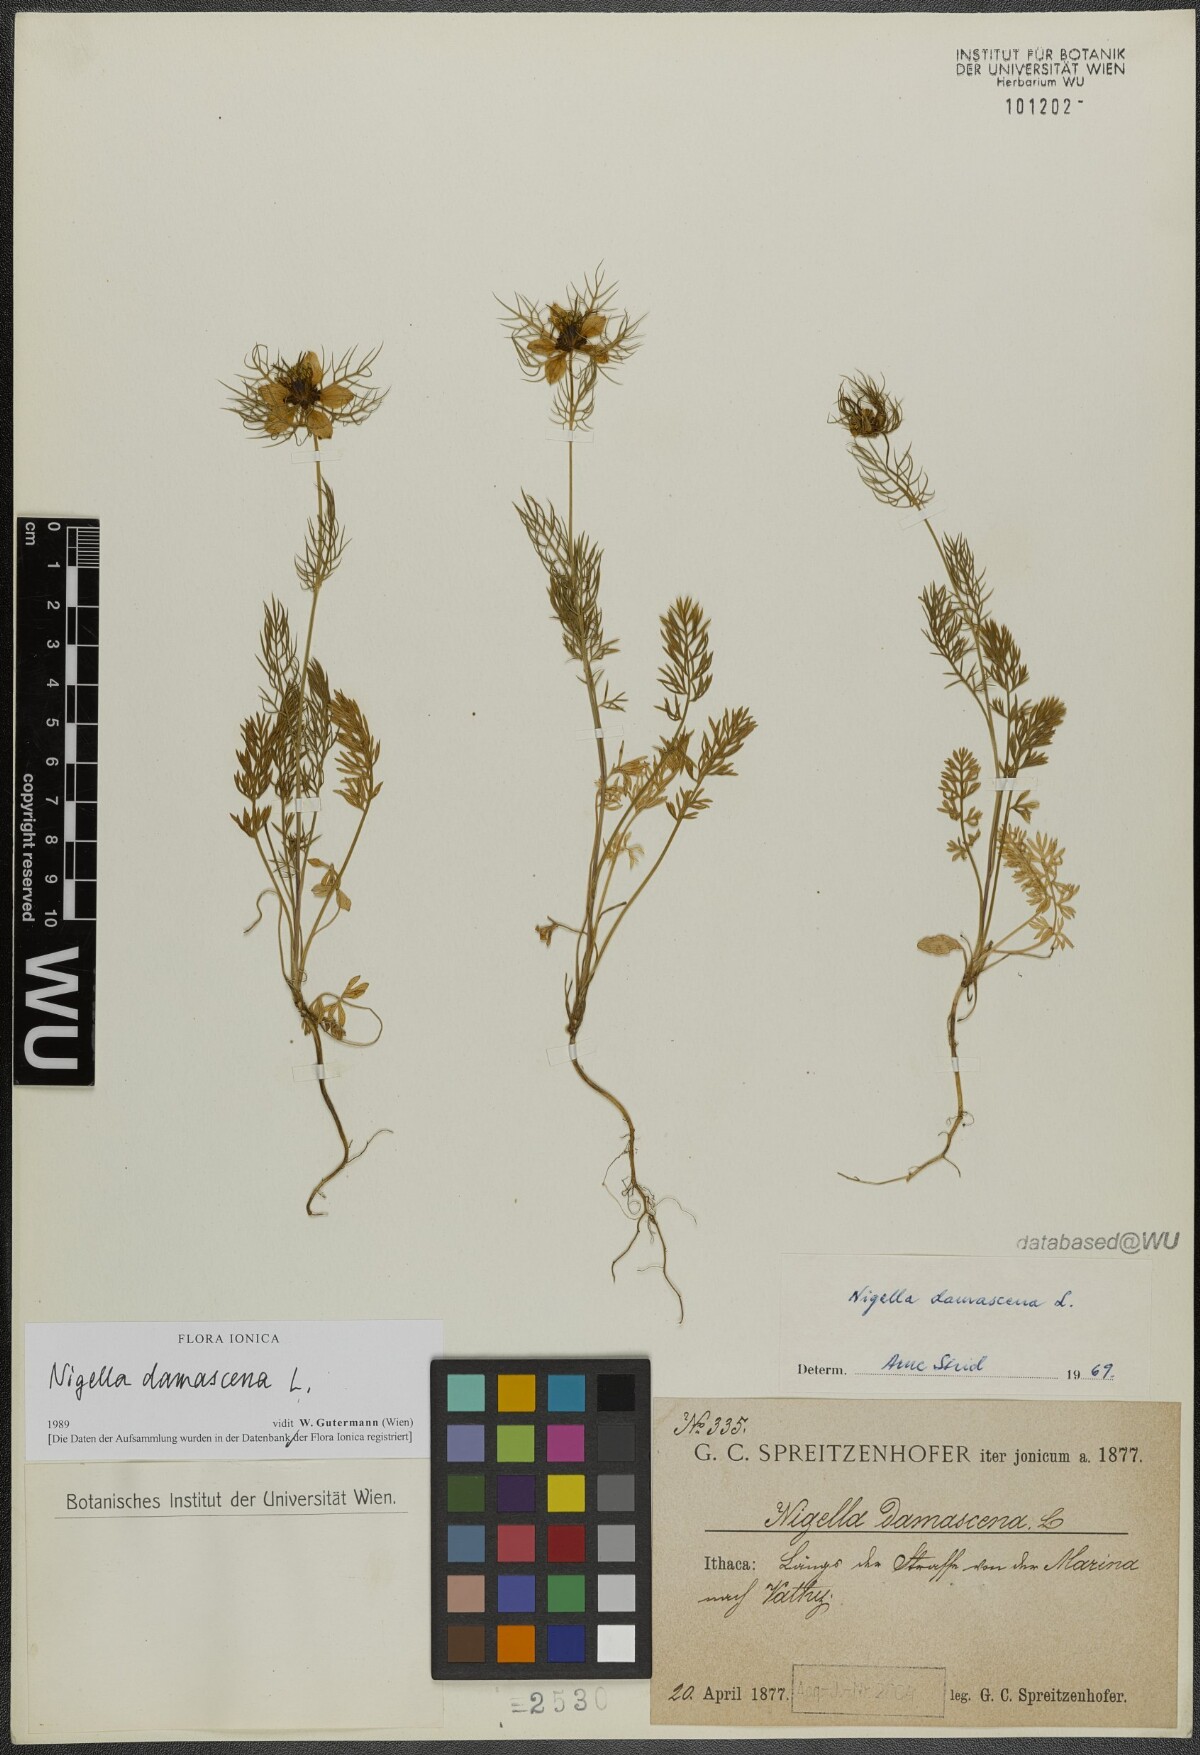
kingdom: Plantae
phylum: Tracheophyta
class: Magnoliopsida
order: Ranunculales
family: Ranunculaceae
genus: Nigella
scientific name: Nigella damascena
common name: Love-in-a-mist
